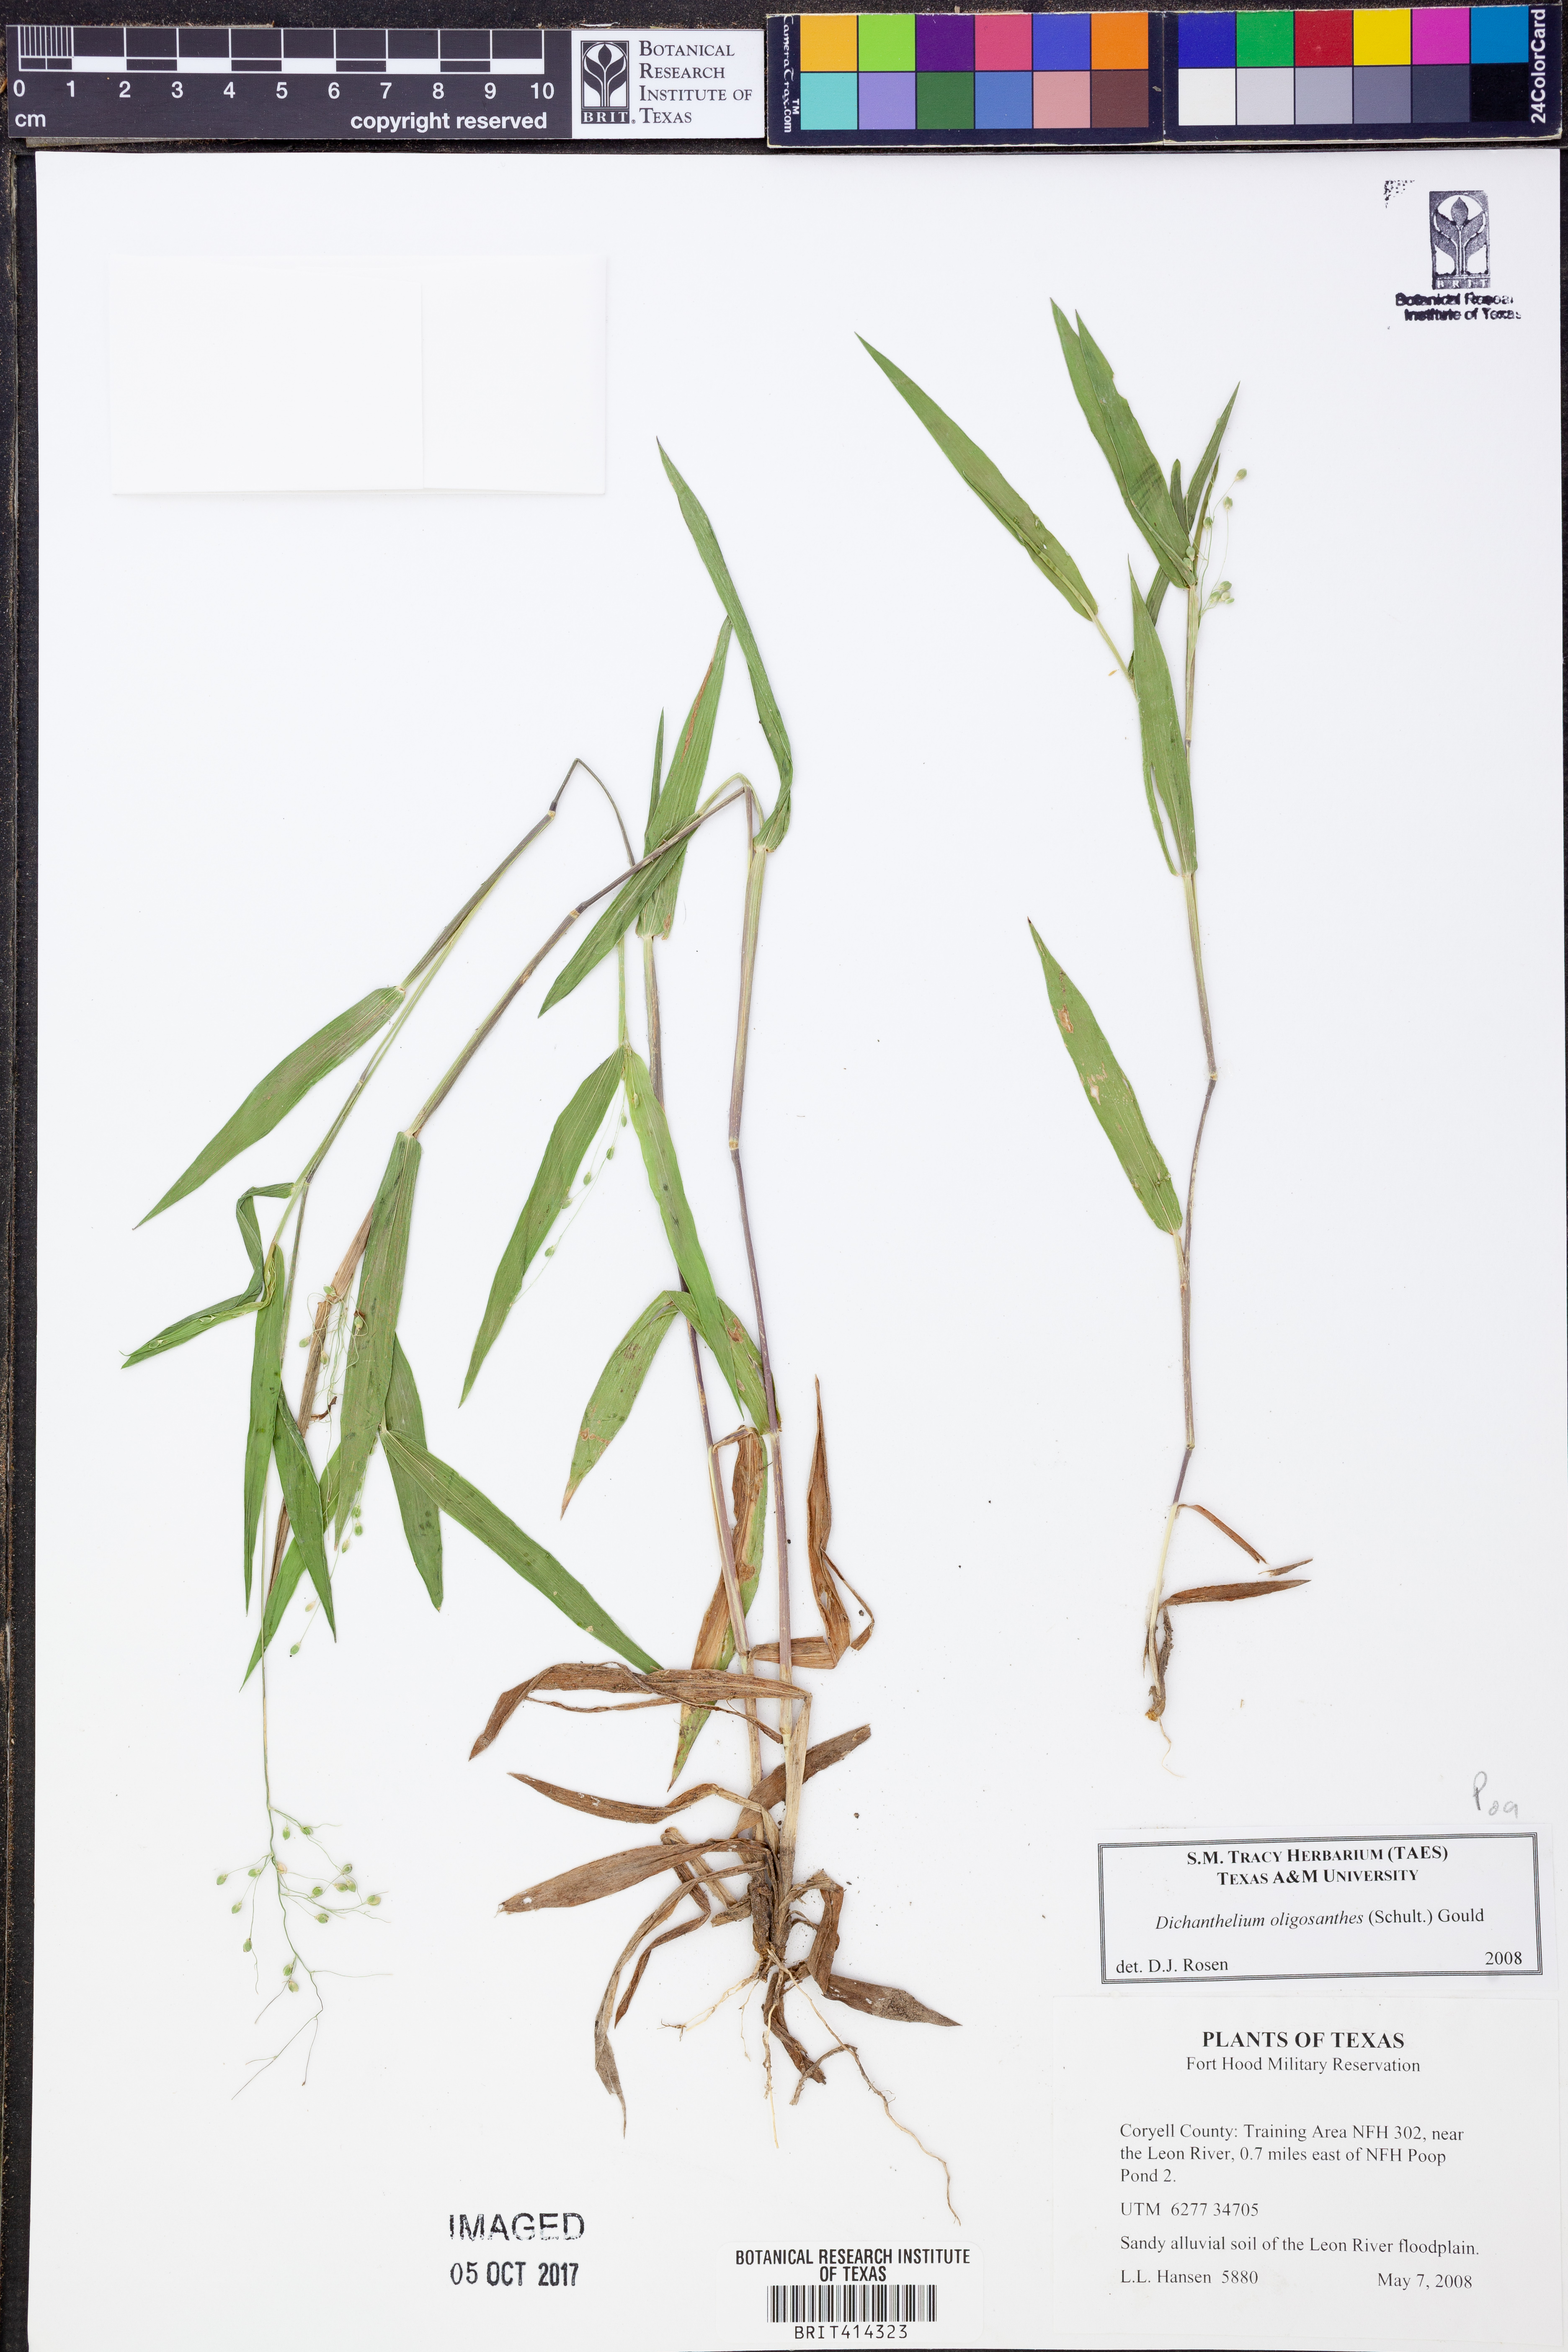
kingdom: Plantae
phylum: Tracheophyta
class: Liliopsida
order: Poales
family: Poaceae
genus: Dichanthelium
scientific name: Dichanthelium oligosanthes
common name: Few-anther obscuregrass
